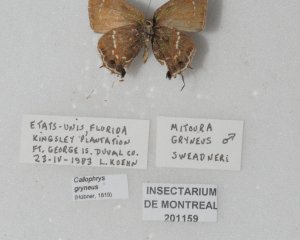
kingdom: Animalia
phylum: Arthropoda
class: Insecta
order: Lepidoptera
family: Lycaenidae
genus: Mitoura
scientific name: Mitoura gryneus
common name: Juniper Hairstreak
